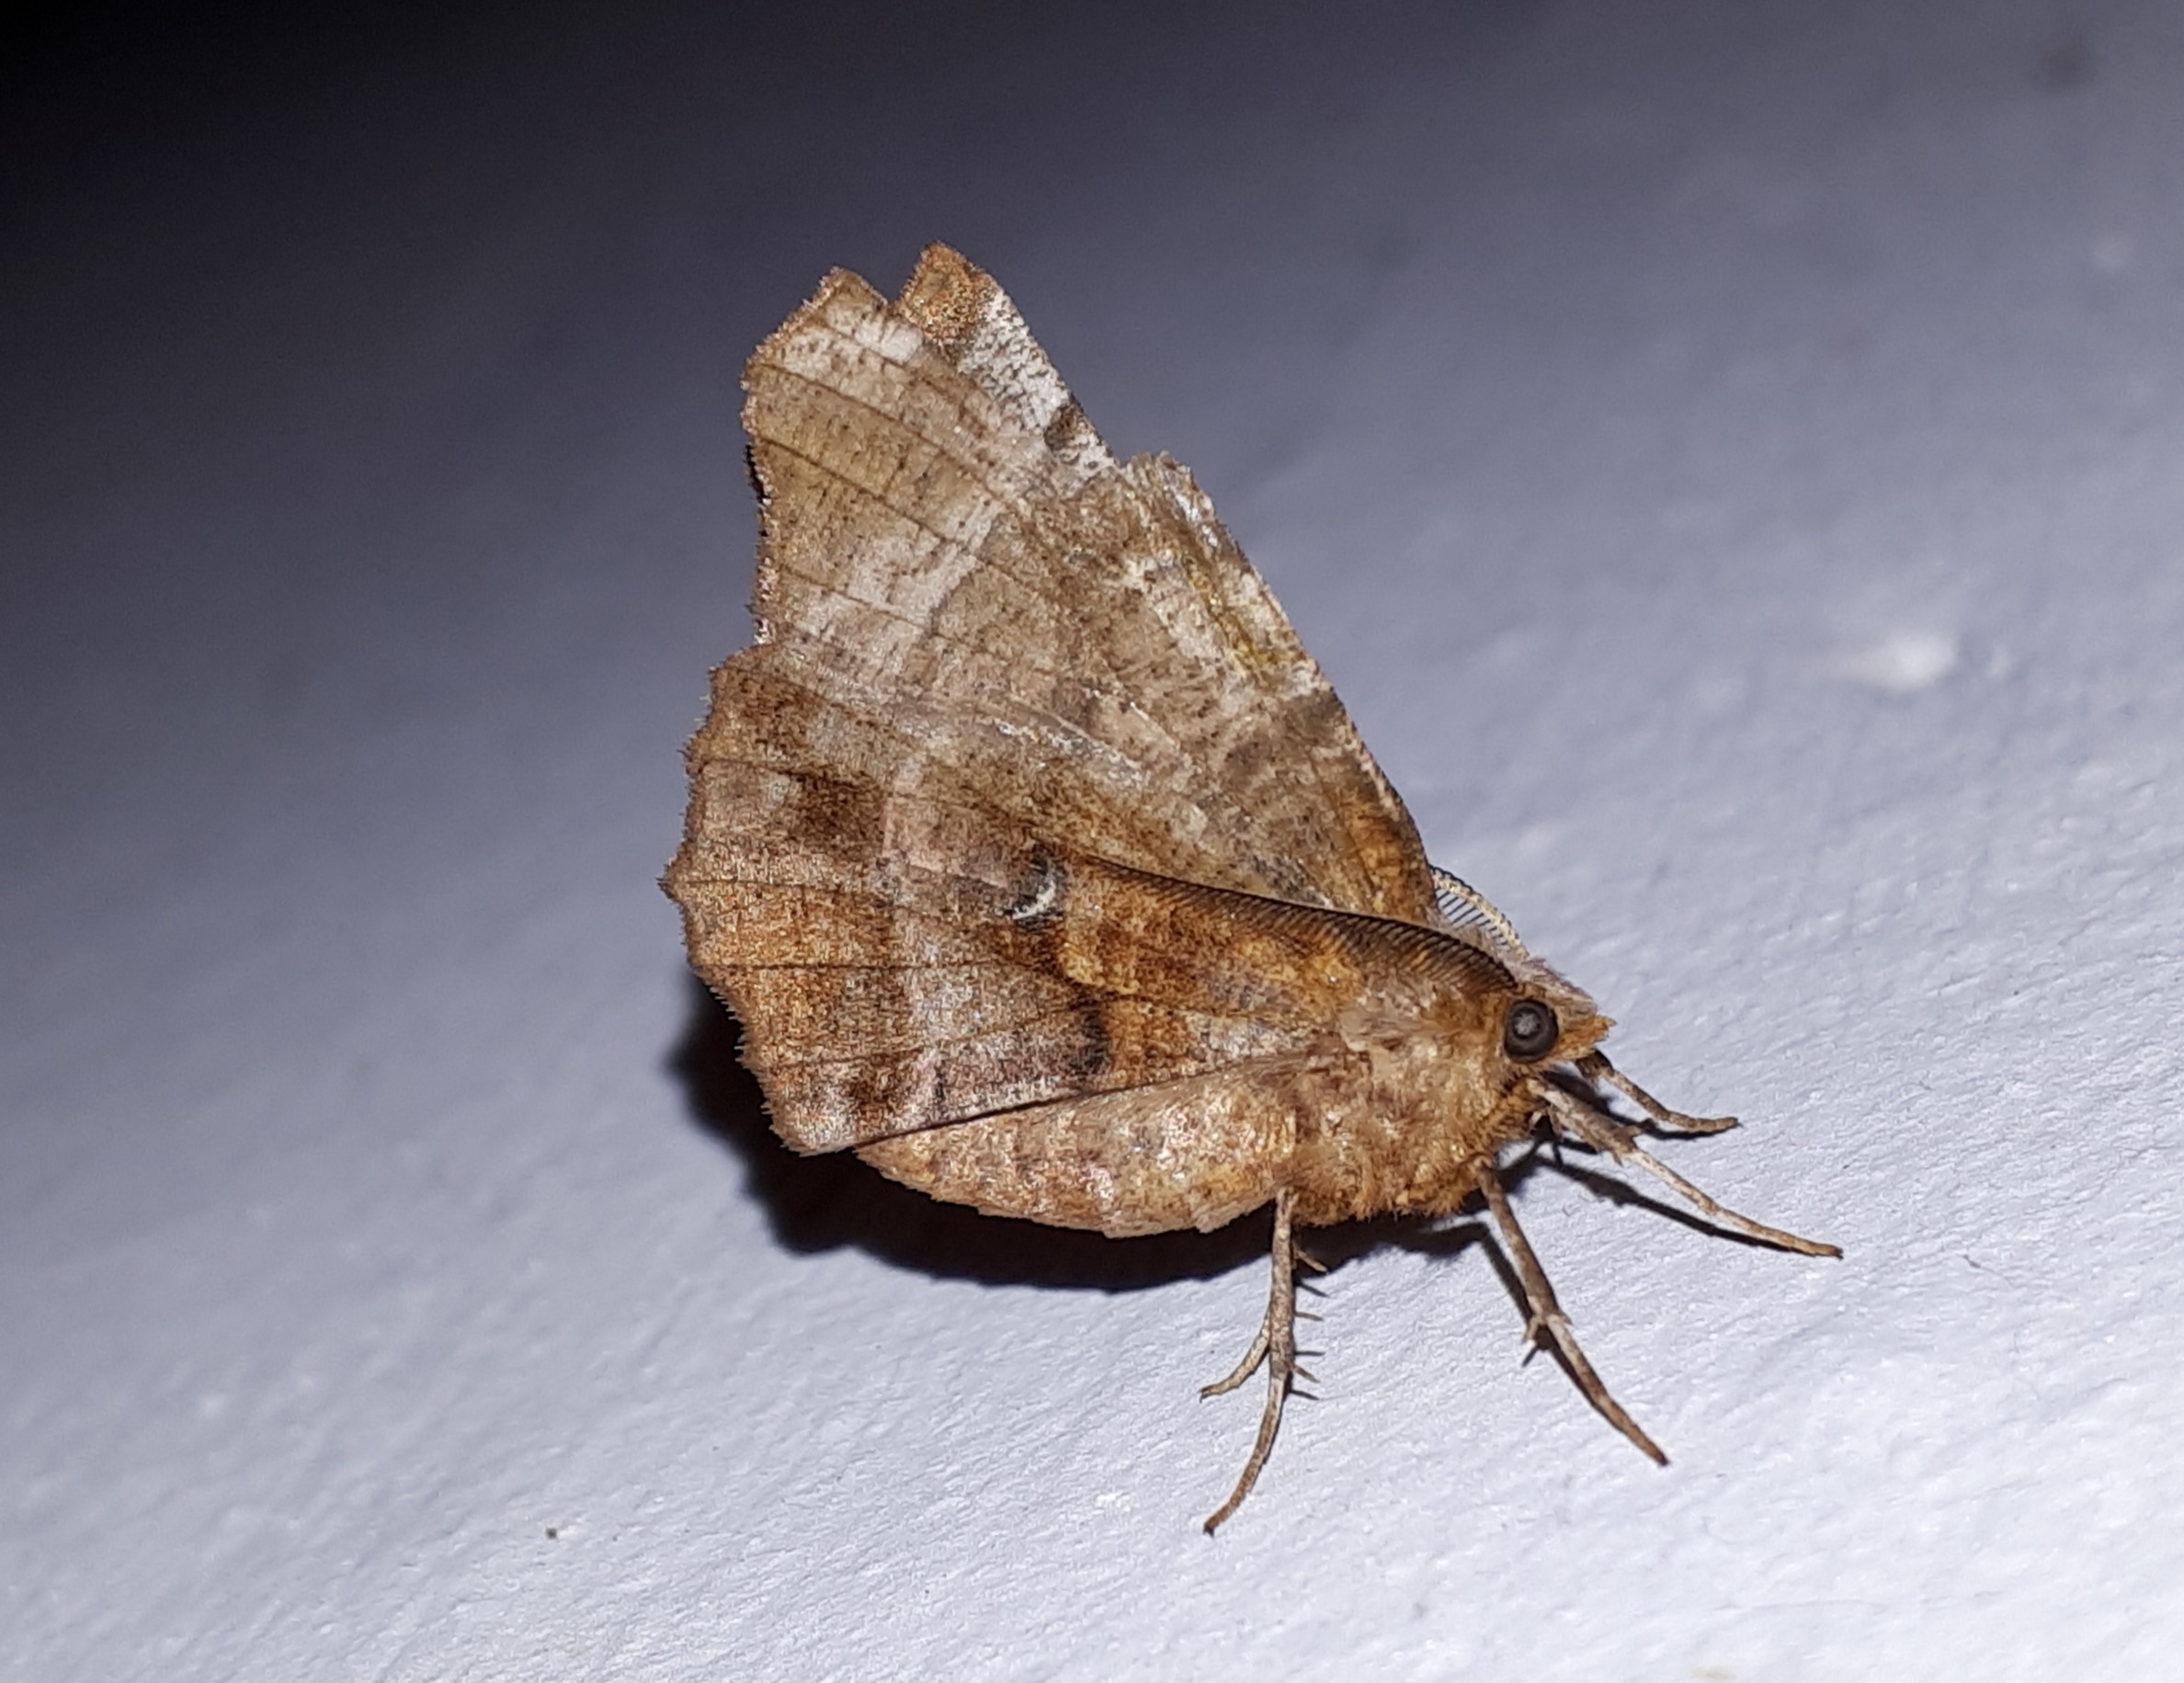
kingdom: Animalia
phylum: Arthropoda
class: Insecta
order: Lepidoptera
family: Geometridae
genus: Selenia
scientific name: Selenia dentaria
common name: Almindelig månemåler
